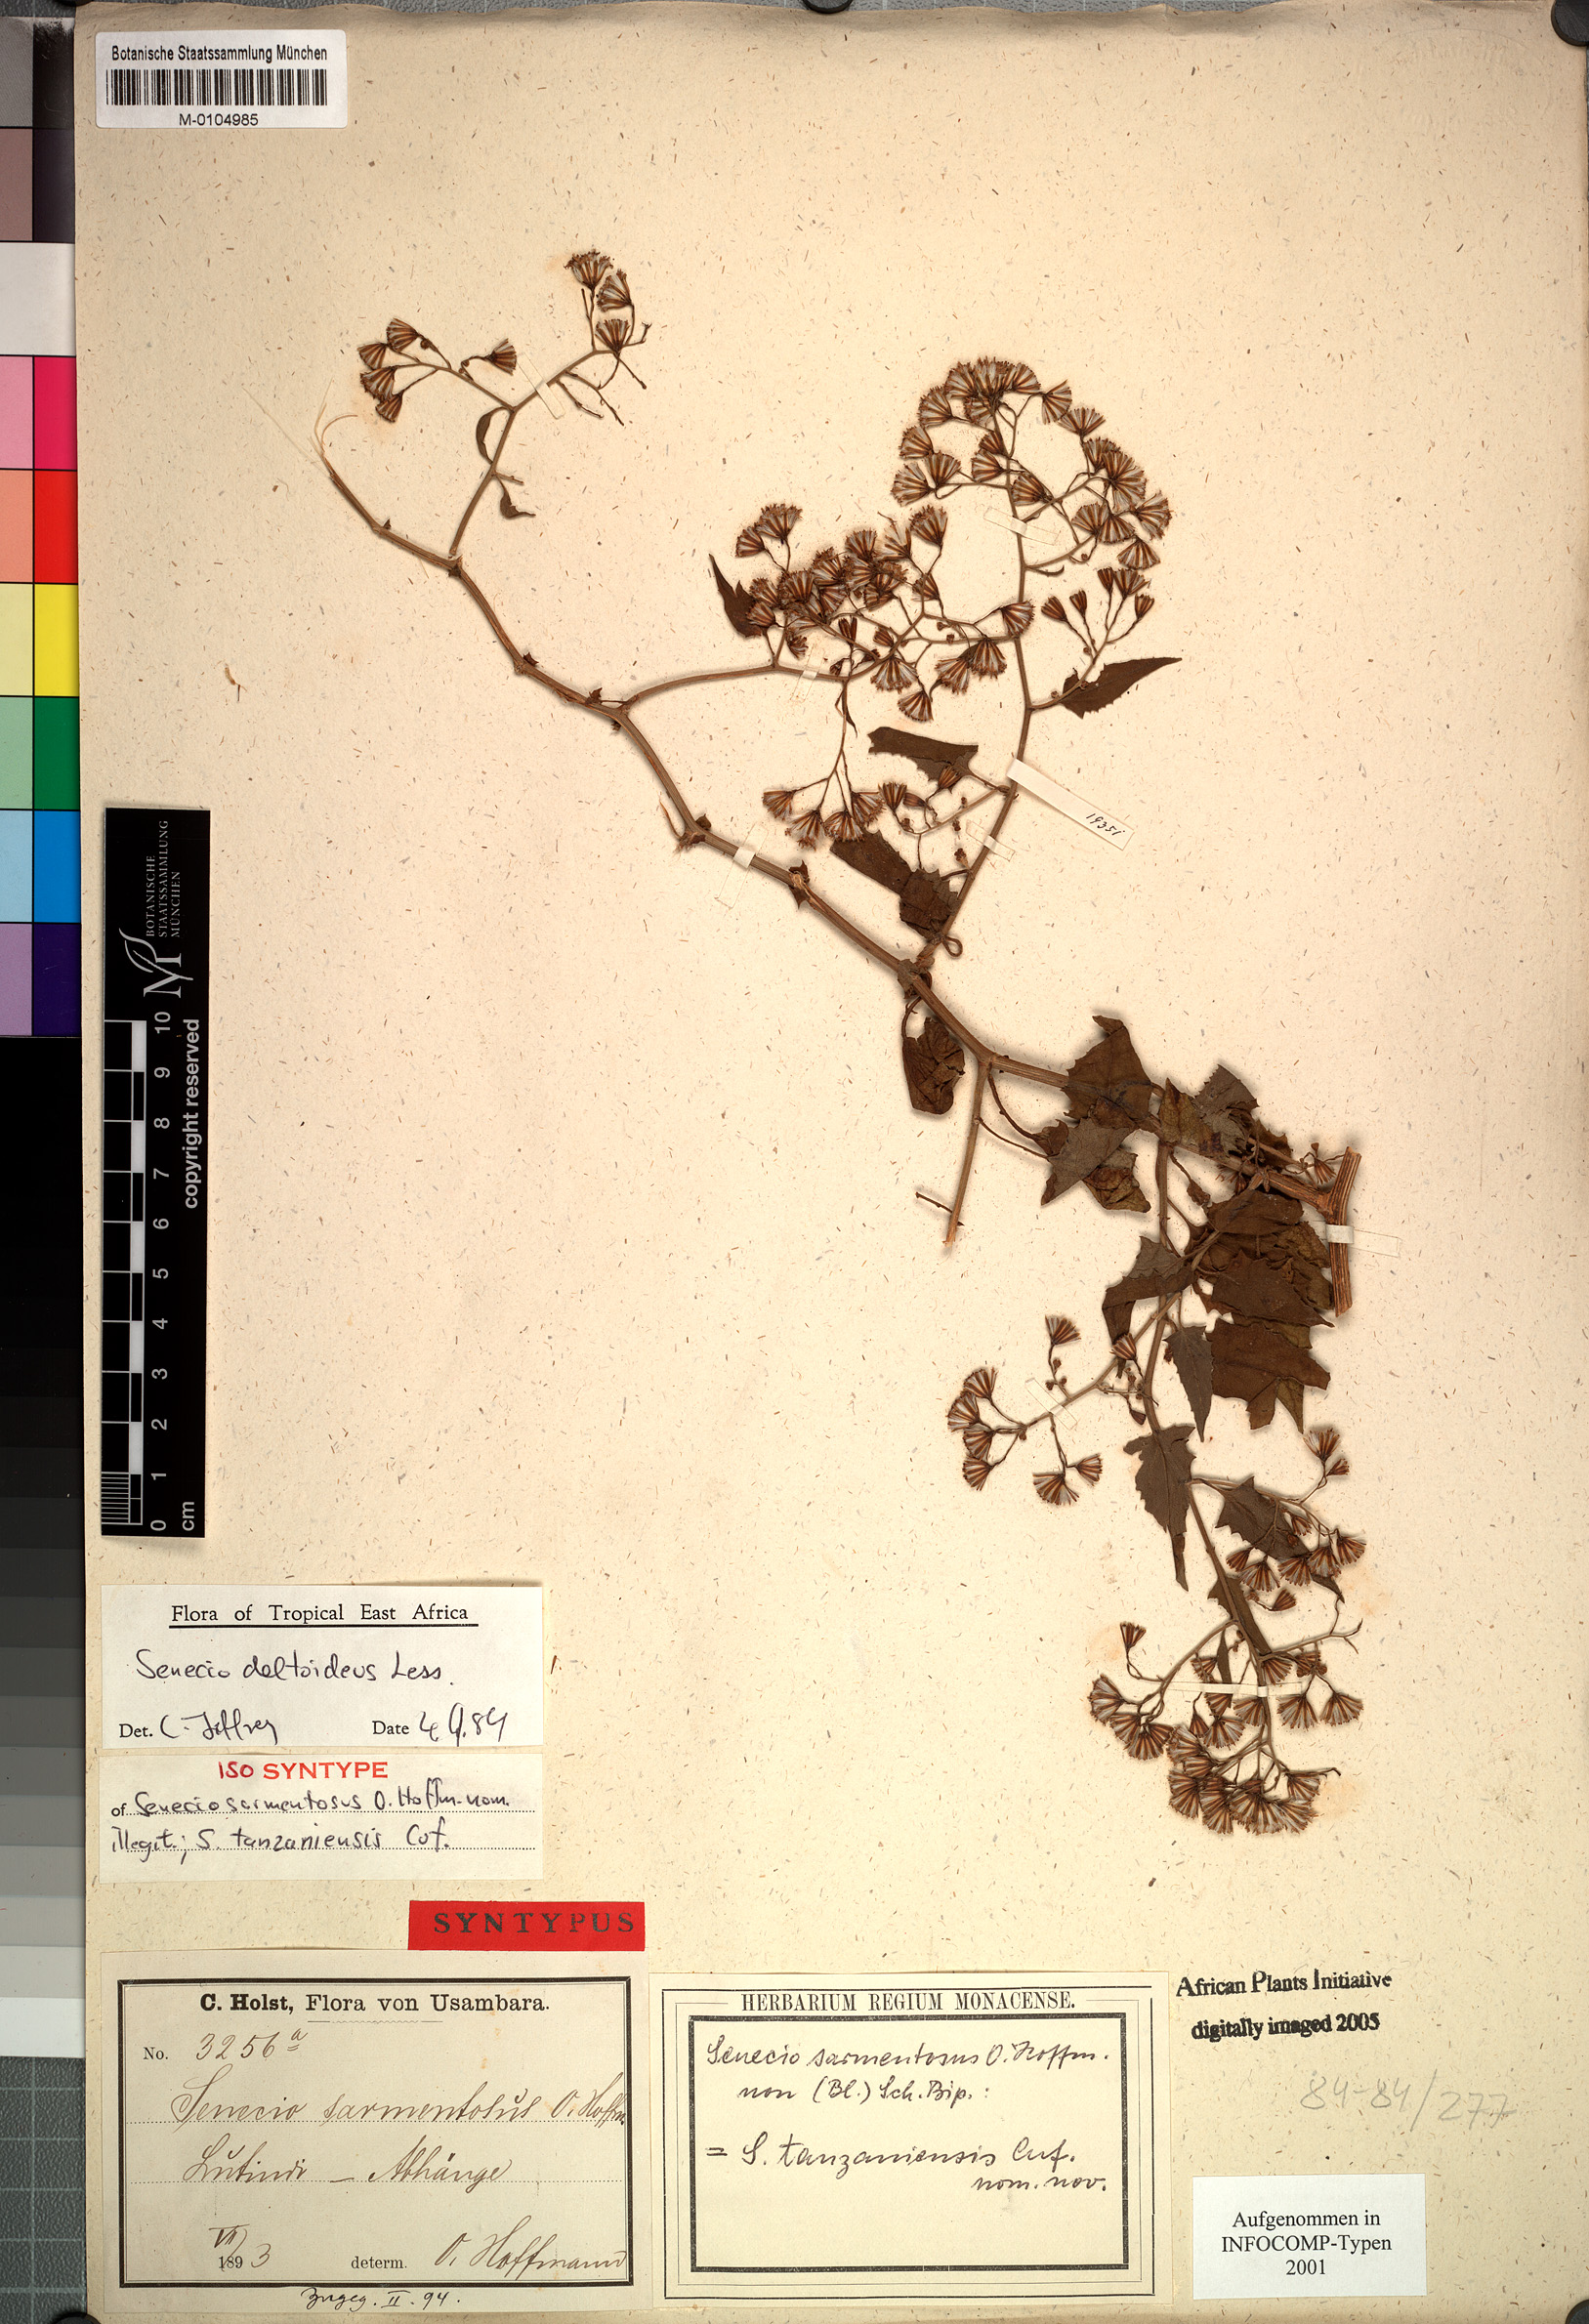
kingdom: Plantae
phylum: Tracheophyta
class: Magnoliopsida
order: Asterales
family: Asteraceae
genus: Senecio
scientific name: Senecio deltoideus
